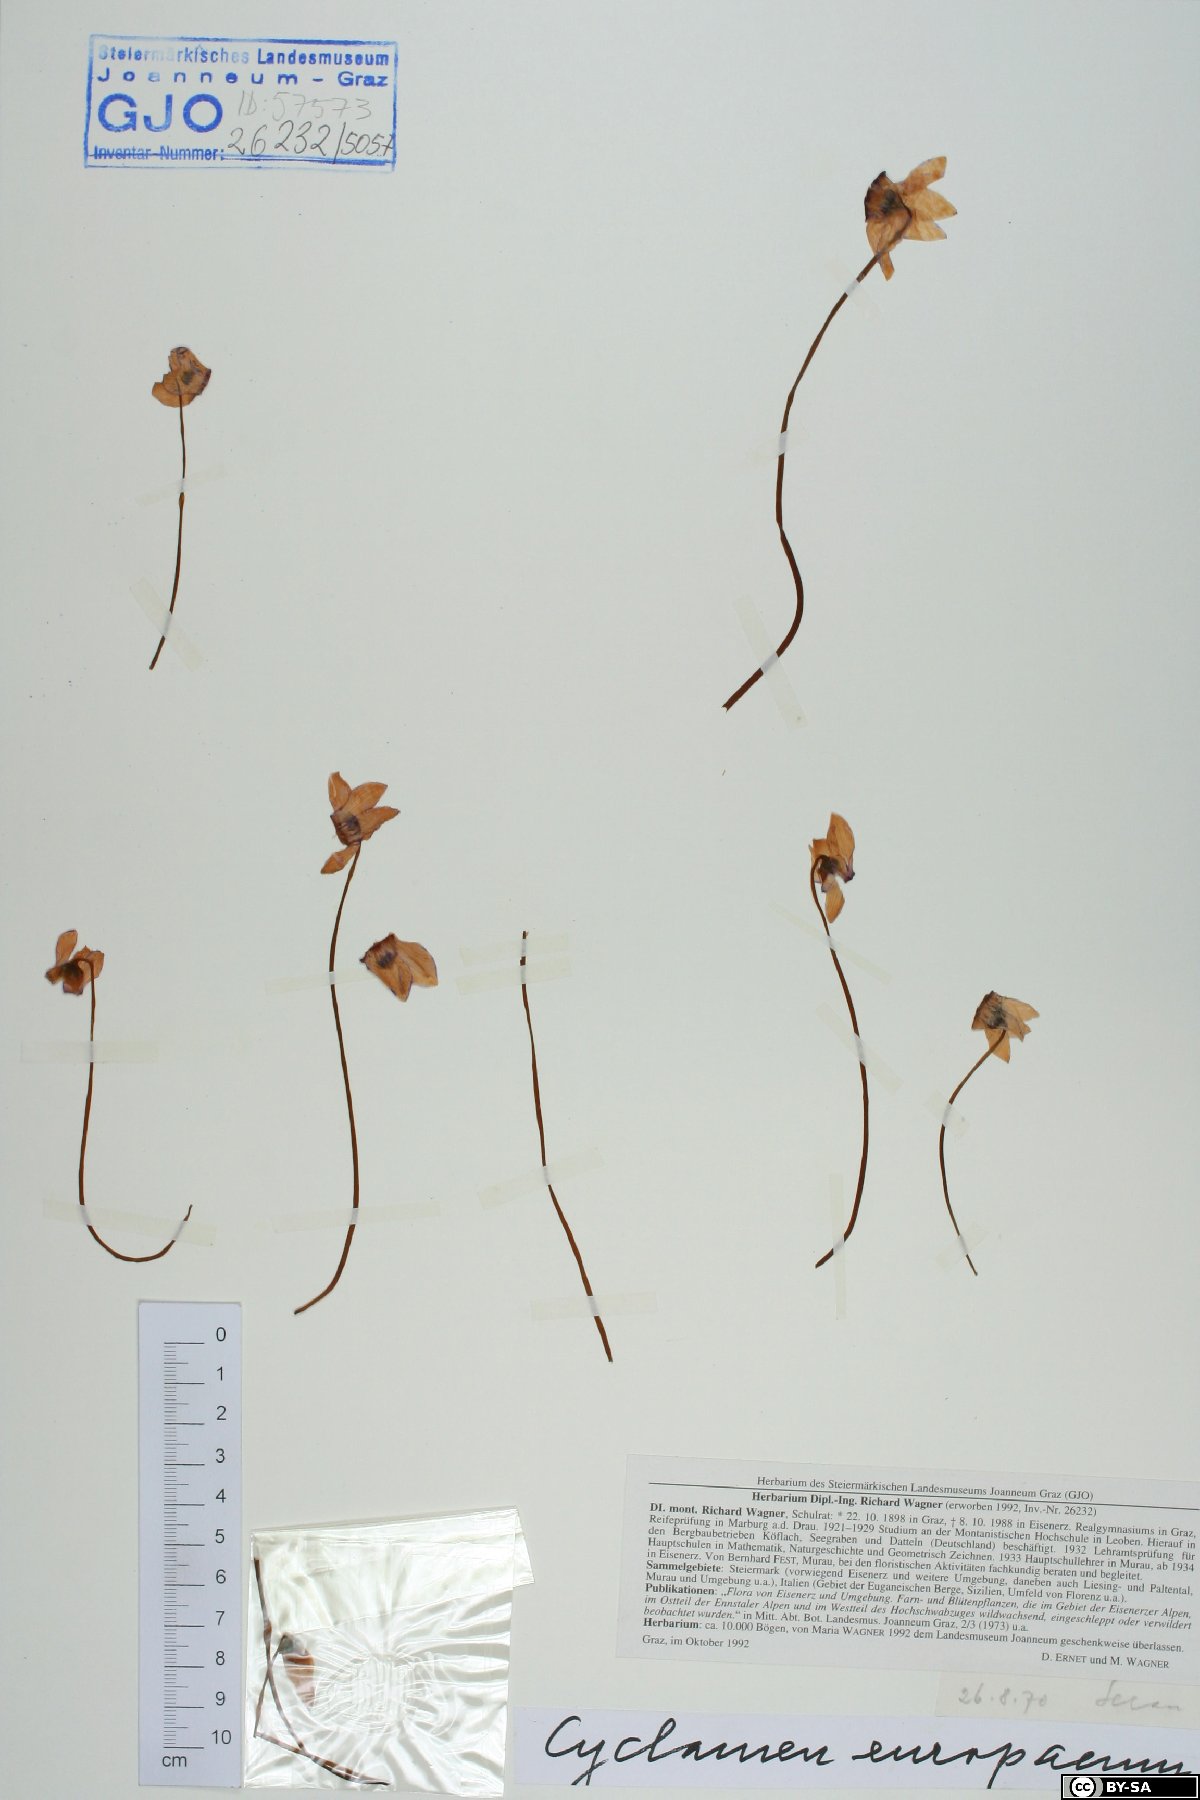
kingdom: Plantae
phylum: Tracheophyta
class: Magnoliopsida
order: Ericales
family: Primulaceae
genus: Cyclamen
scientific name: Cyclamen purpurascens
